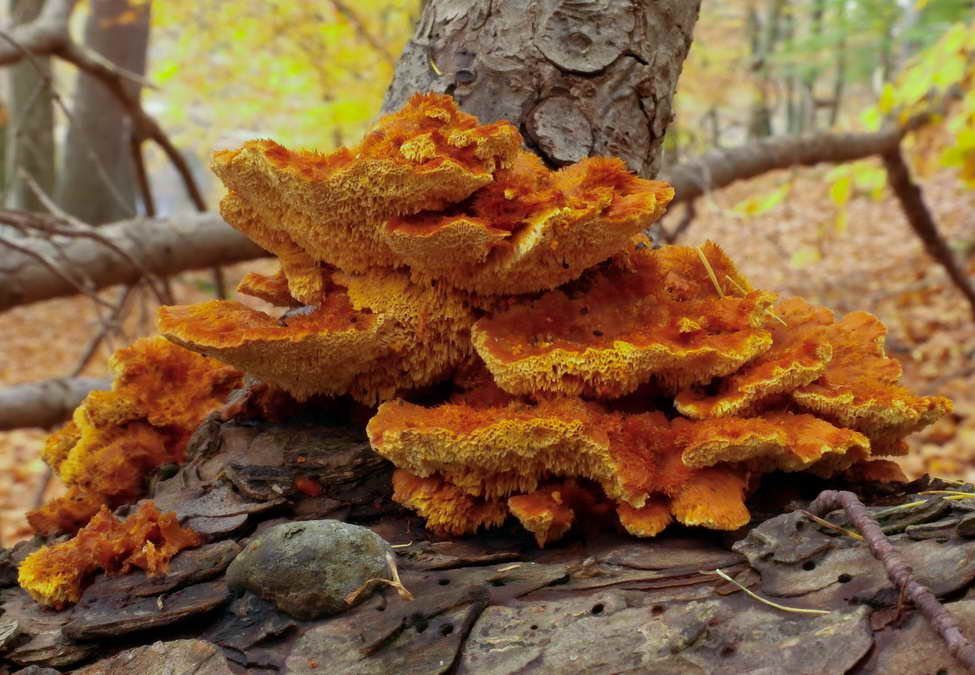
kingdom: Fungi
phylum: Basidiomycota
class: Agaricomycetes
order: Polyporales
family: Pycnoporellaceae
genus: Pycnoporellus
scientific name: Pycnoporellus fulgens
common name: flammeporesvamp
